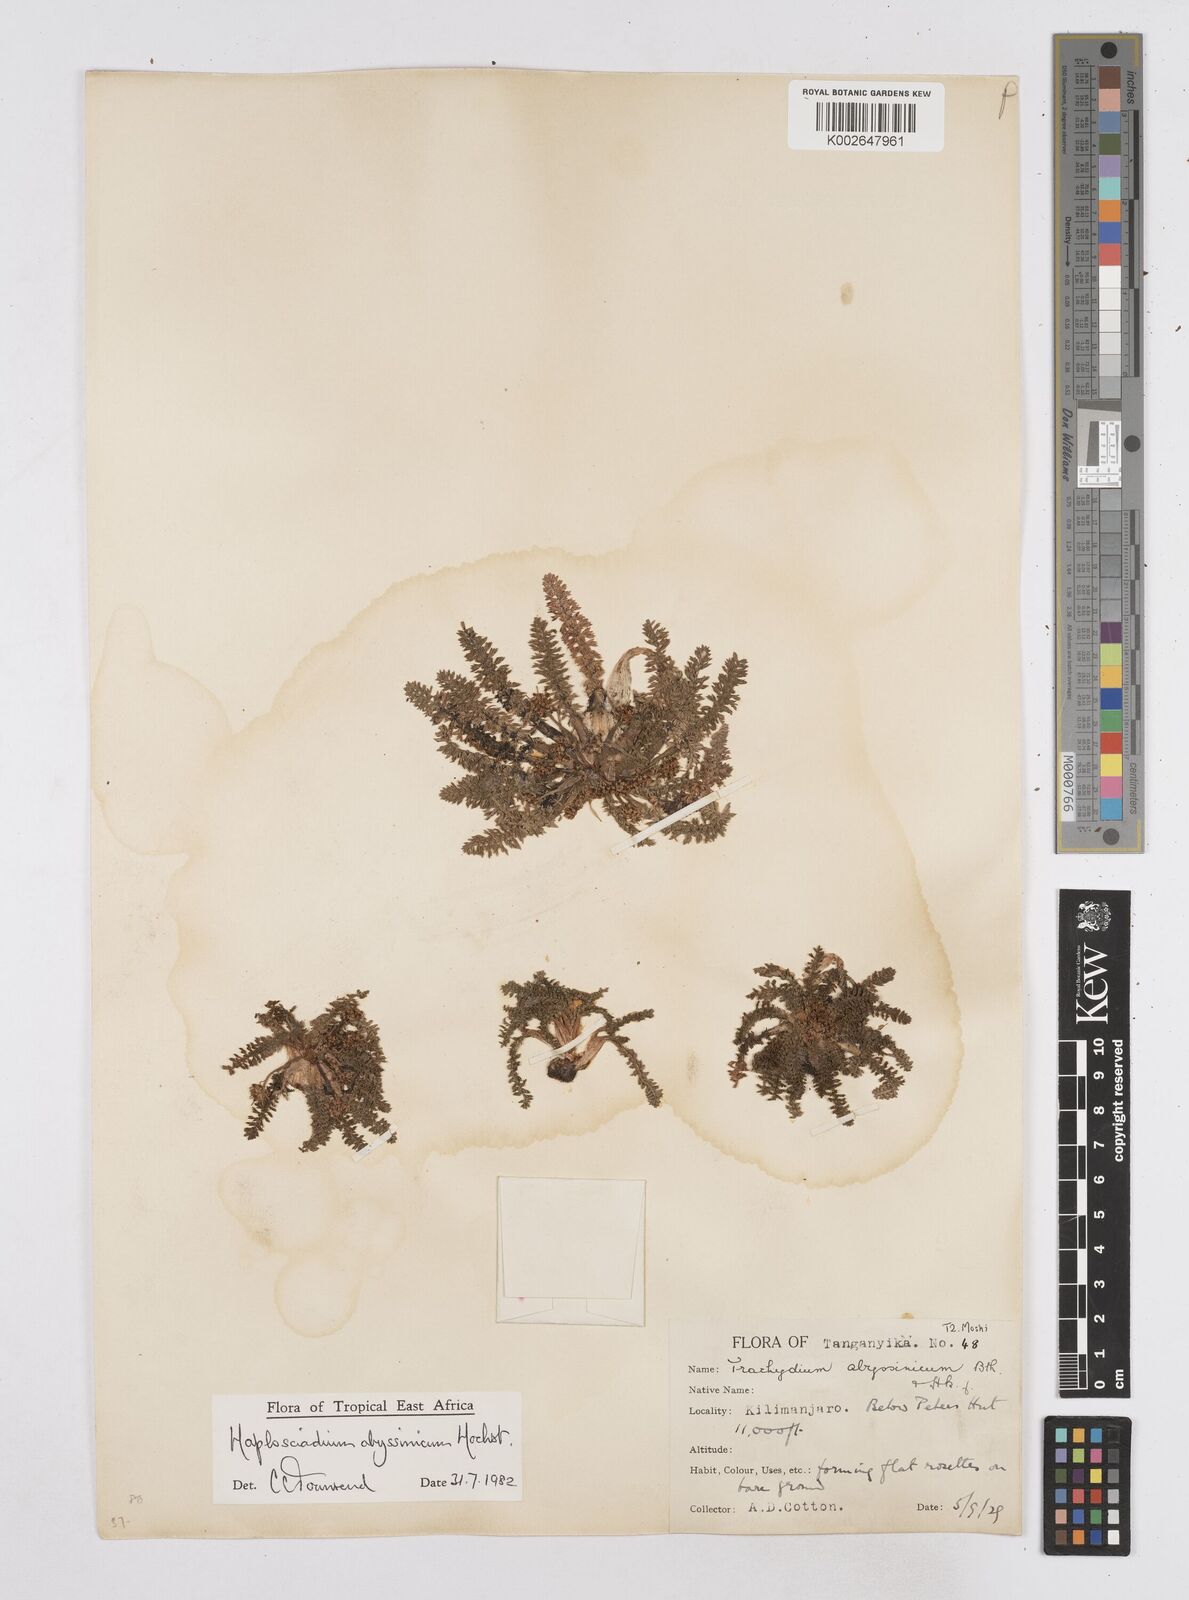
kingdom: Plantae
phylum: Tracheophyta
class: Magnoliopsida
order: Apiales
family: Apiaceae
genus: Haplosciadium
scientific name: Haplosciadium abyssinicum
